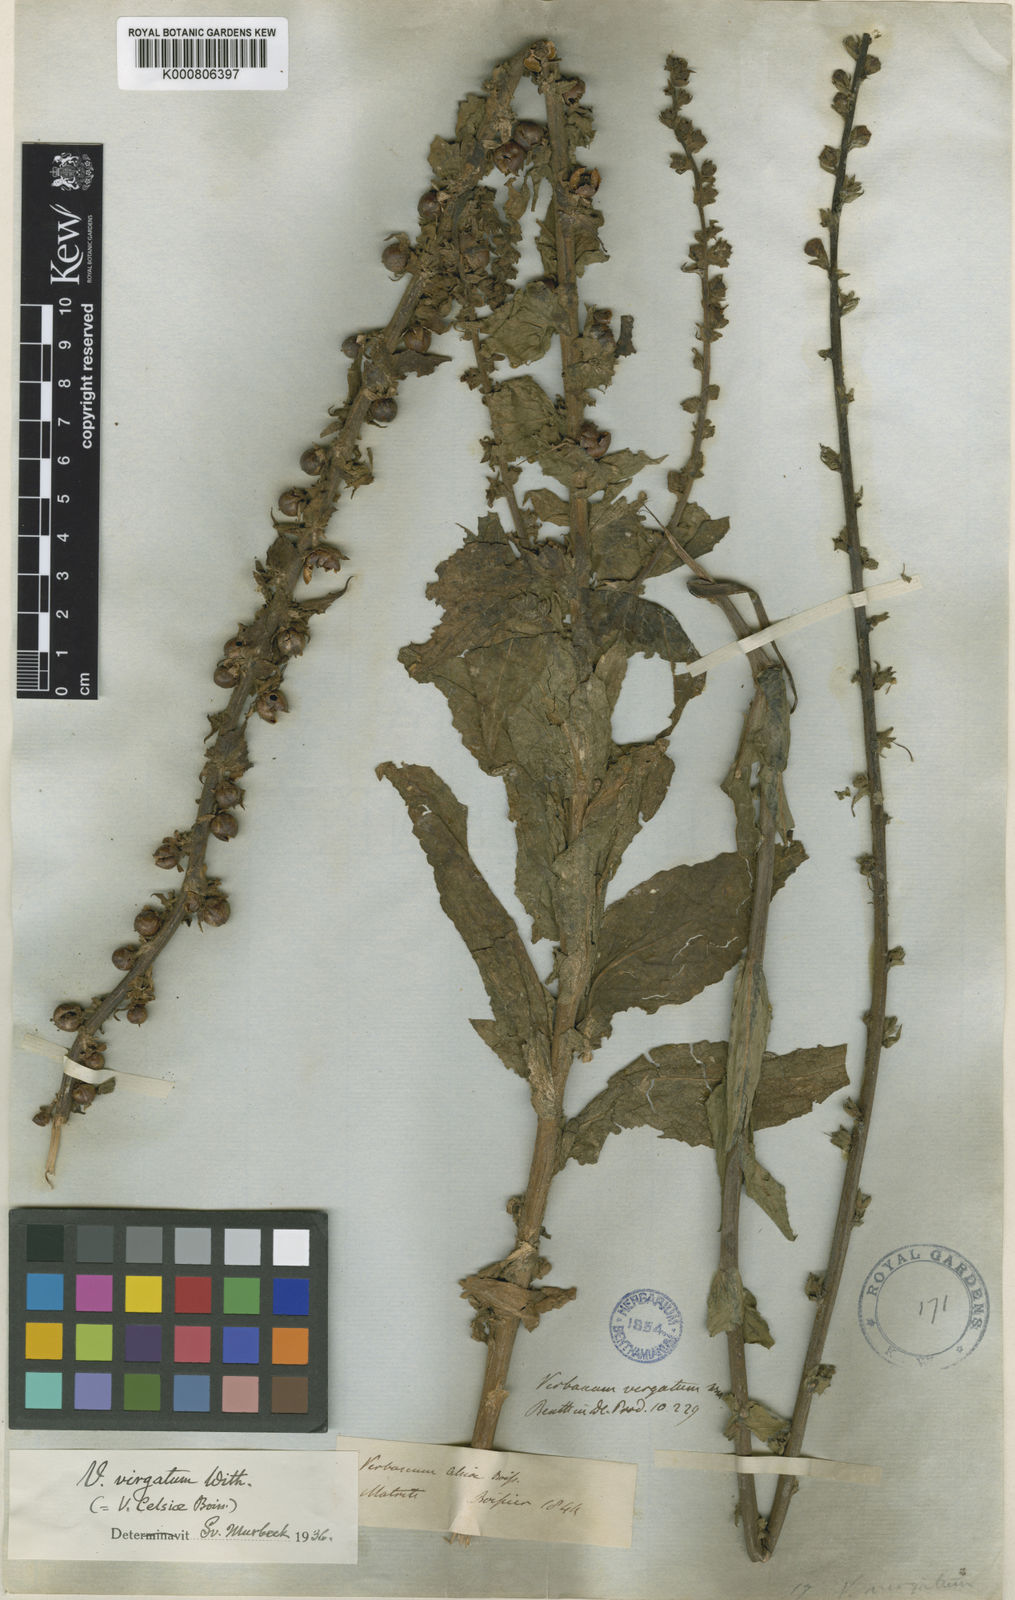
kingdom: Plantae
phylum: Tracheophyta
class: Magnoliopsida
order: Lamiales
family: Scrophulariaceae
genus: Verbascum
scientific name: Verbascum virgatum
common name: Twiggy mullein
